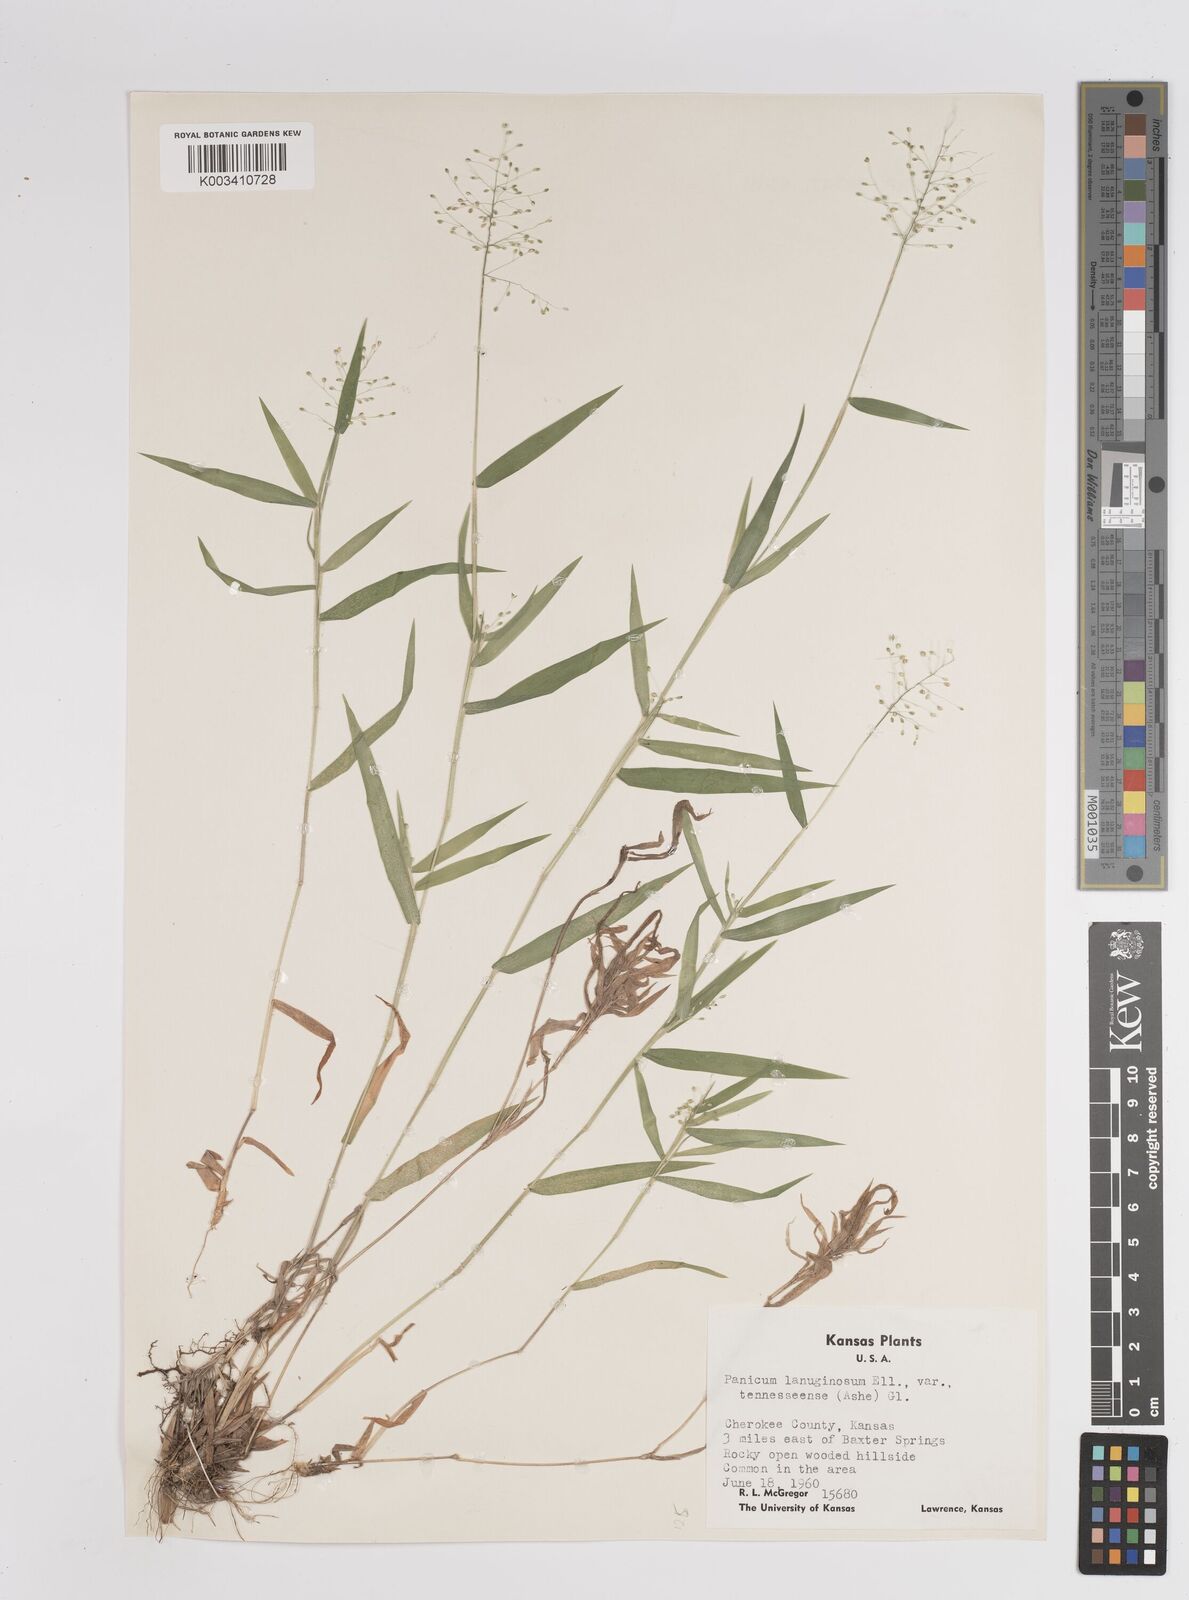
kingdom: Plantae
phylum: Tracheophyta
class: Liliopsida
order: Poales
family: Poaceae
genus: Dichanthelium
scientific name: Dichanthelium acuminatum
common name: Hairy panic grass
